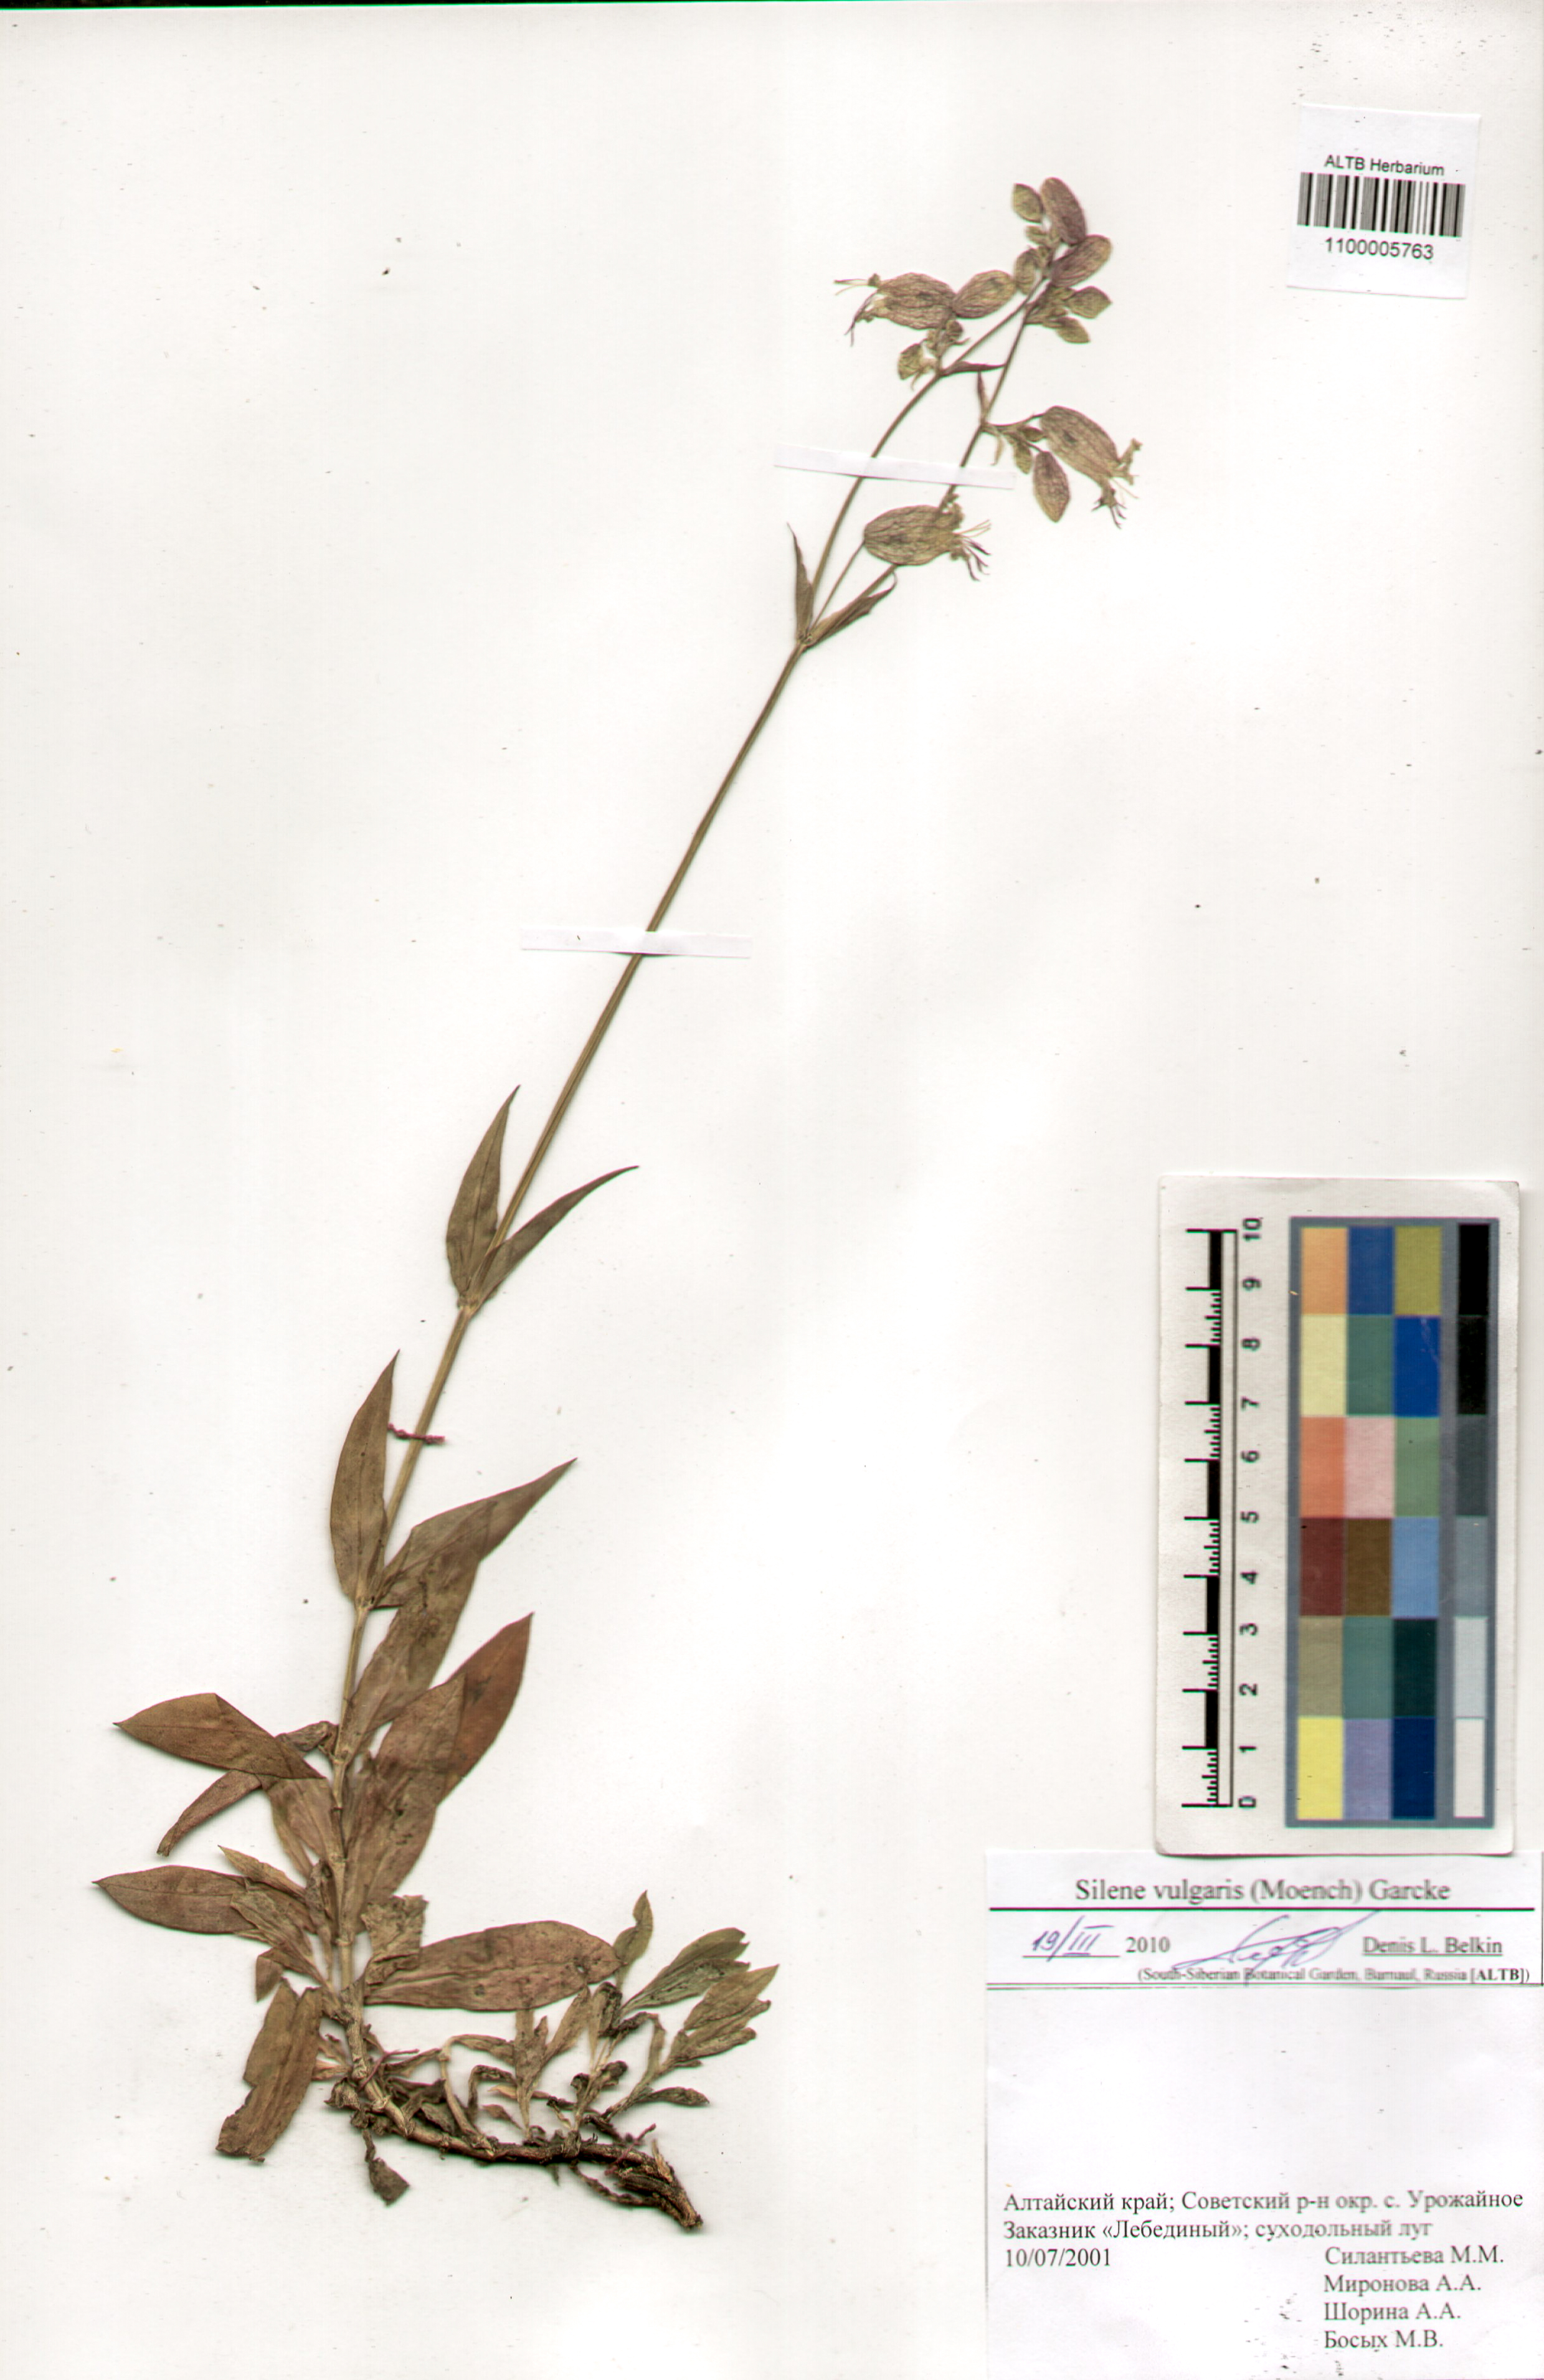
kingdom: Plantae
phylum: Tracheophyta
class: Magnoliopsida
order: Caryophyllales
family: Caryophyllaceae
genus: Silene
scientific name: Silene vulgaris
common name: Bladder campion
